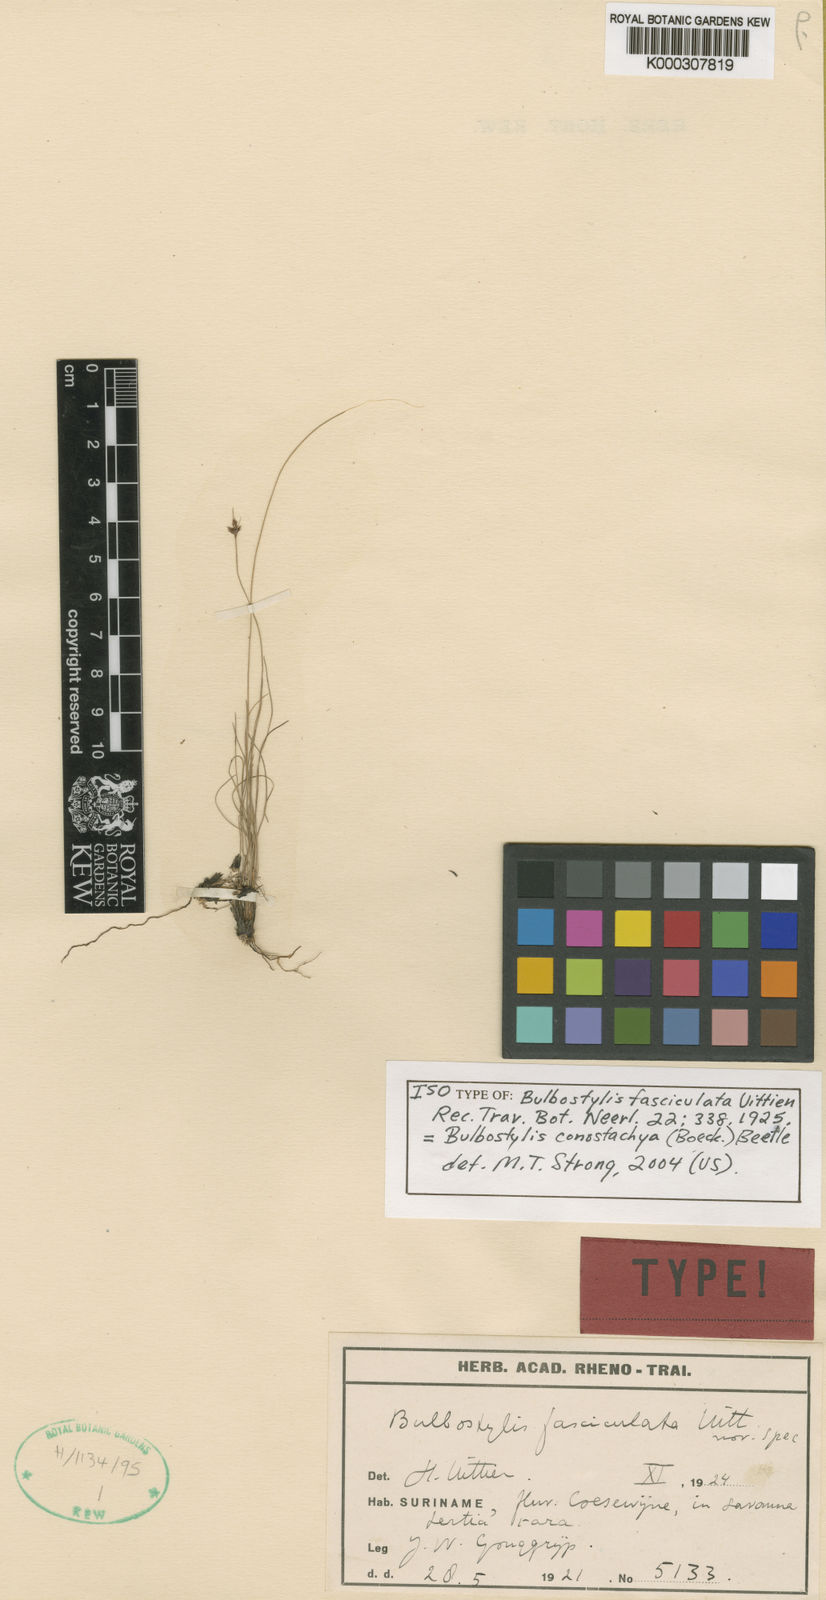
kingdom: Plantae
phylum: Tracheophyta
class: Liliopsida
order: Poales
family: Cyperaceae
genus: Bulbostylis
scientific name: Bulbostylis fasciculata
